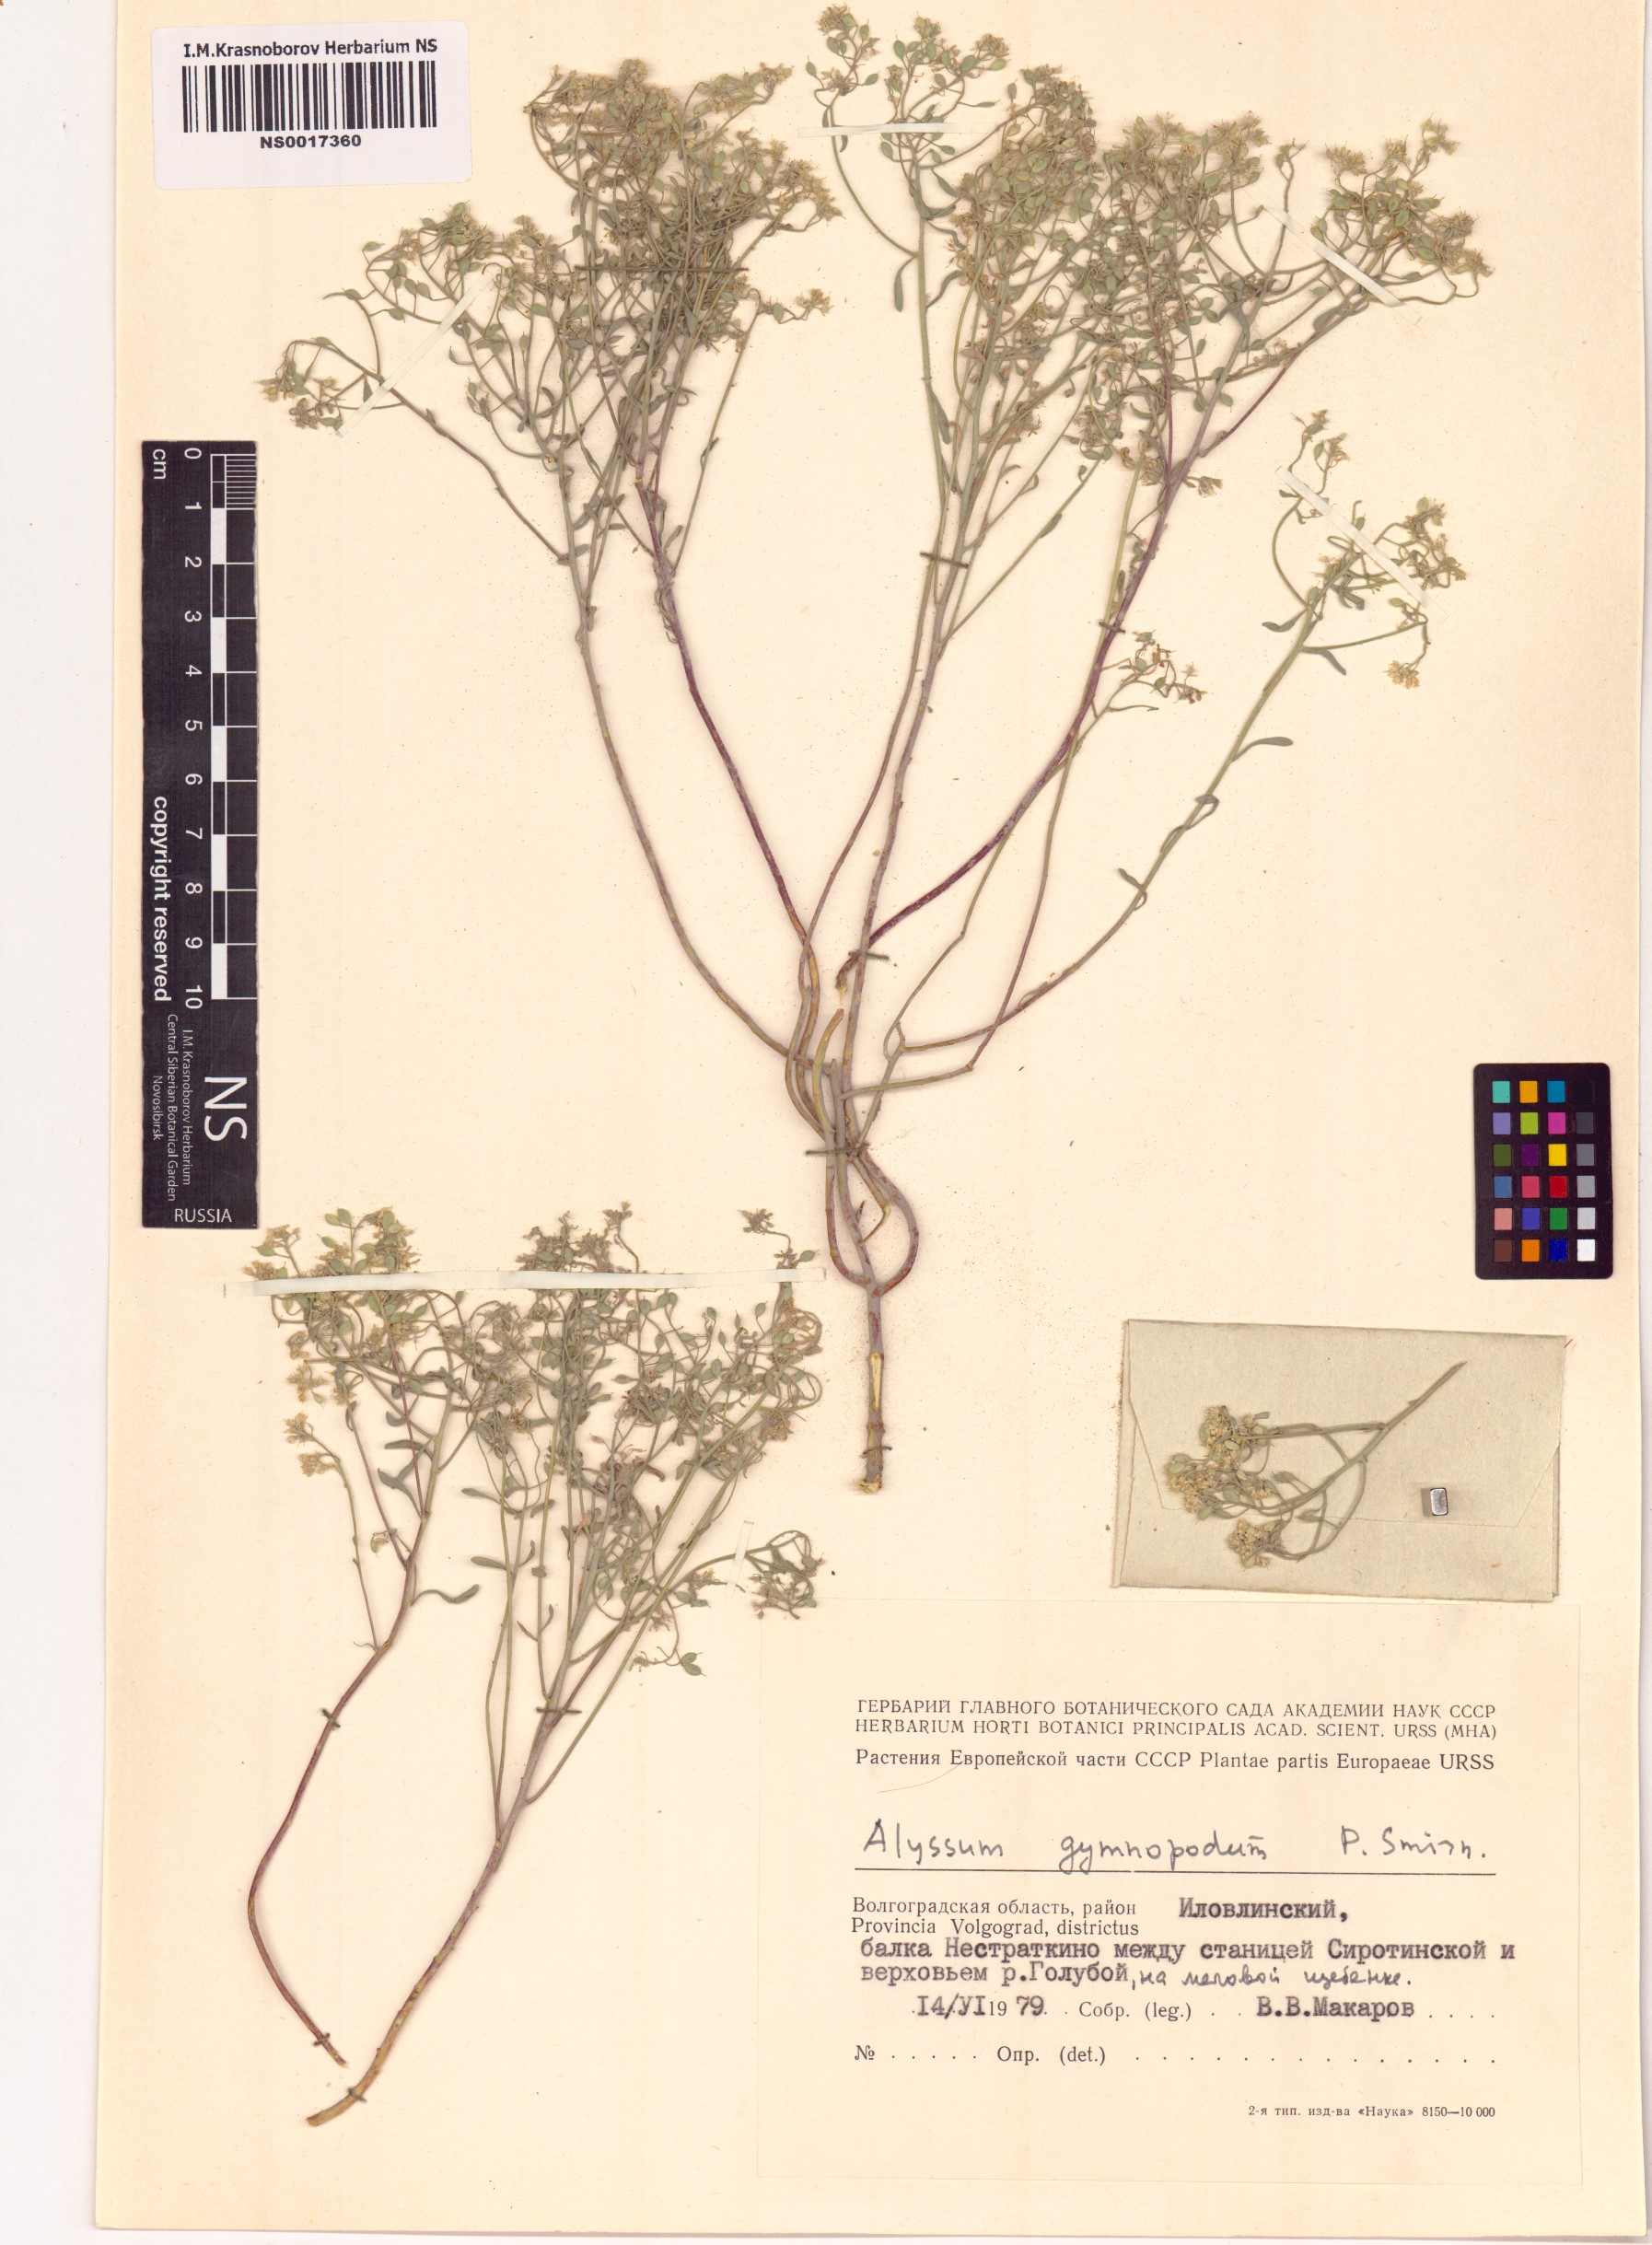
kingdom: Plantae
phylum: Tracheophyta
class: Magnoliopsida
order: Brassicales
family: Brassicaceae
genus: Odontarrhena
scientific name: Odontarrhena tortuosa
